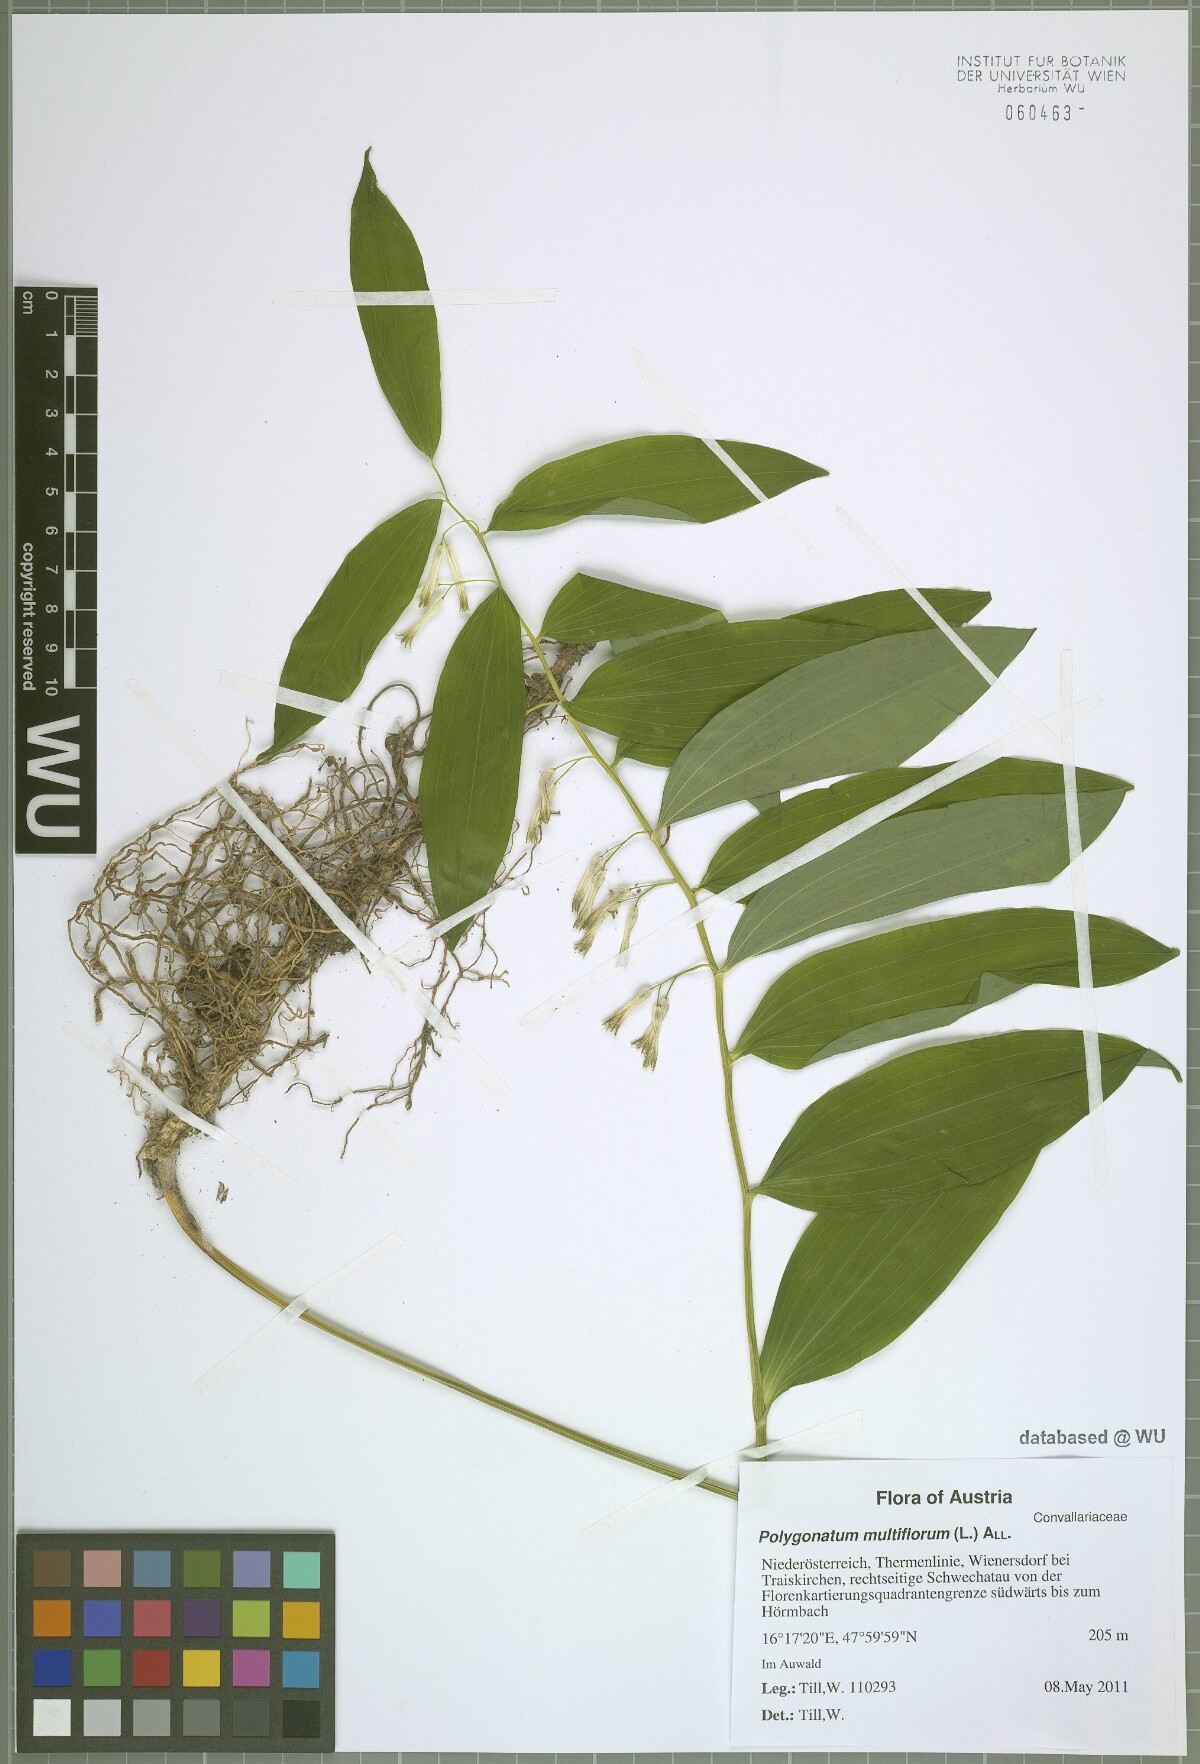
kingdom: Plantae
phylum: Tracheophyta
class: Liliopsida
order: Asparagales
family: Asparagaceae
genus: Polygonatum
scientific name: Polygonatum multiflorum
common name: Solomon's-seal
